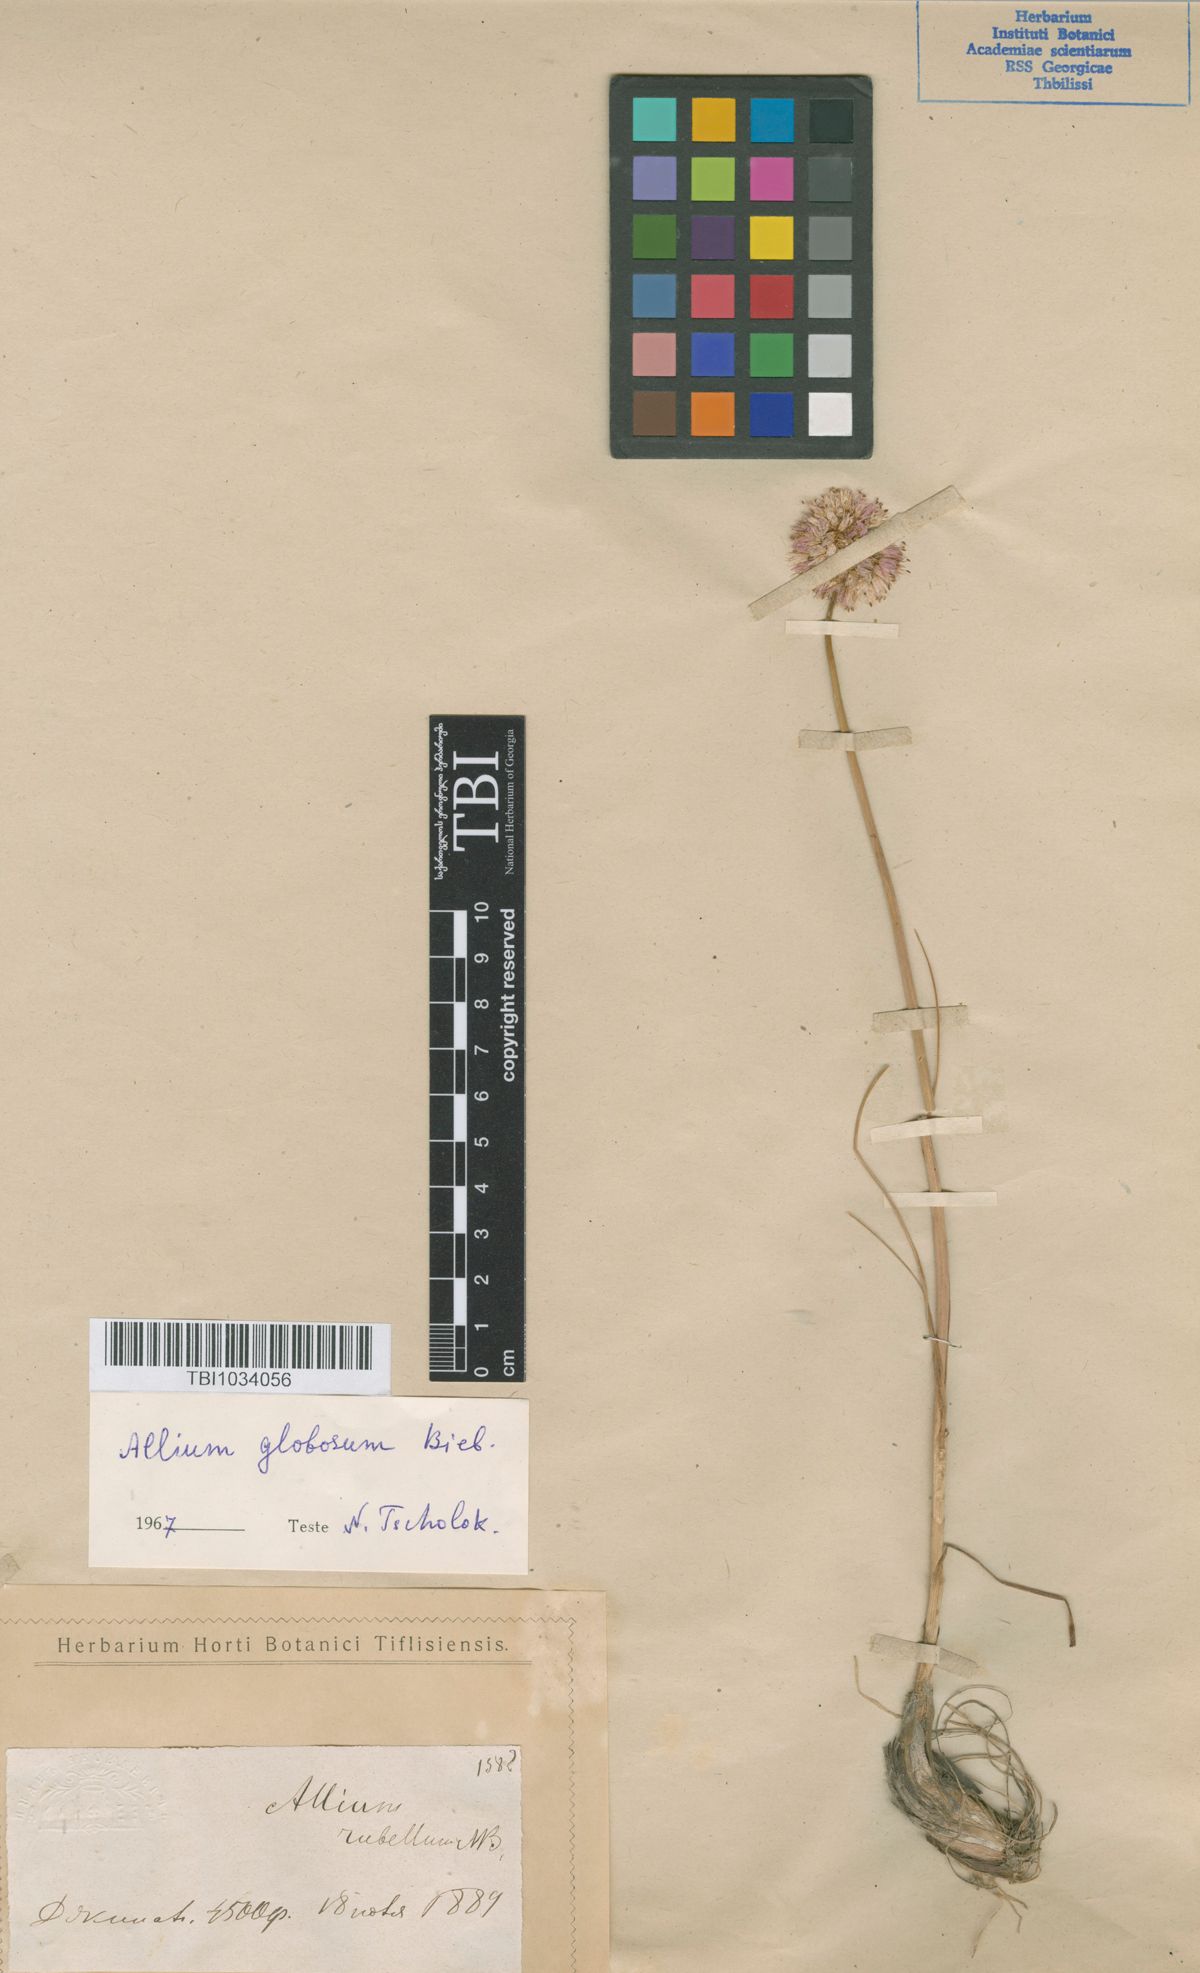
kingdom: Plantae
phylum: Tracheophyta
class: Liliopsida
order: Asparagales
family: Amaryllidaceae
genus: Allium
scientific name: Allium saxatile
